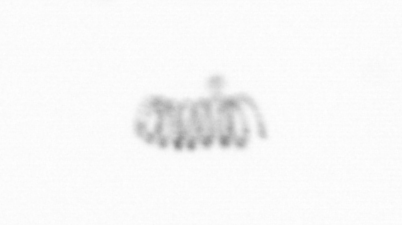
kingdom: Chromista
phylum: Ochrophyta
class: Bacillariophyceae
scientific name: Bacillariophyceae
